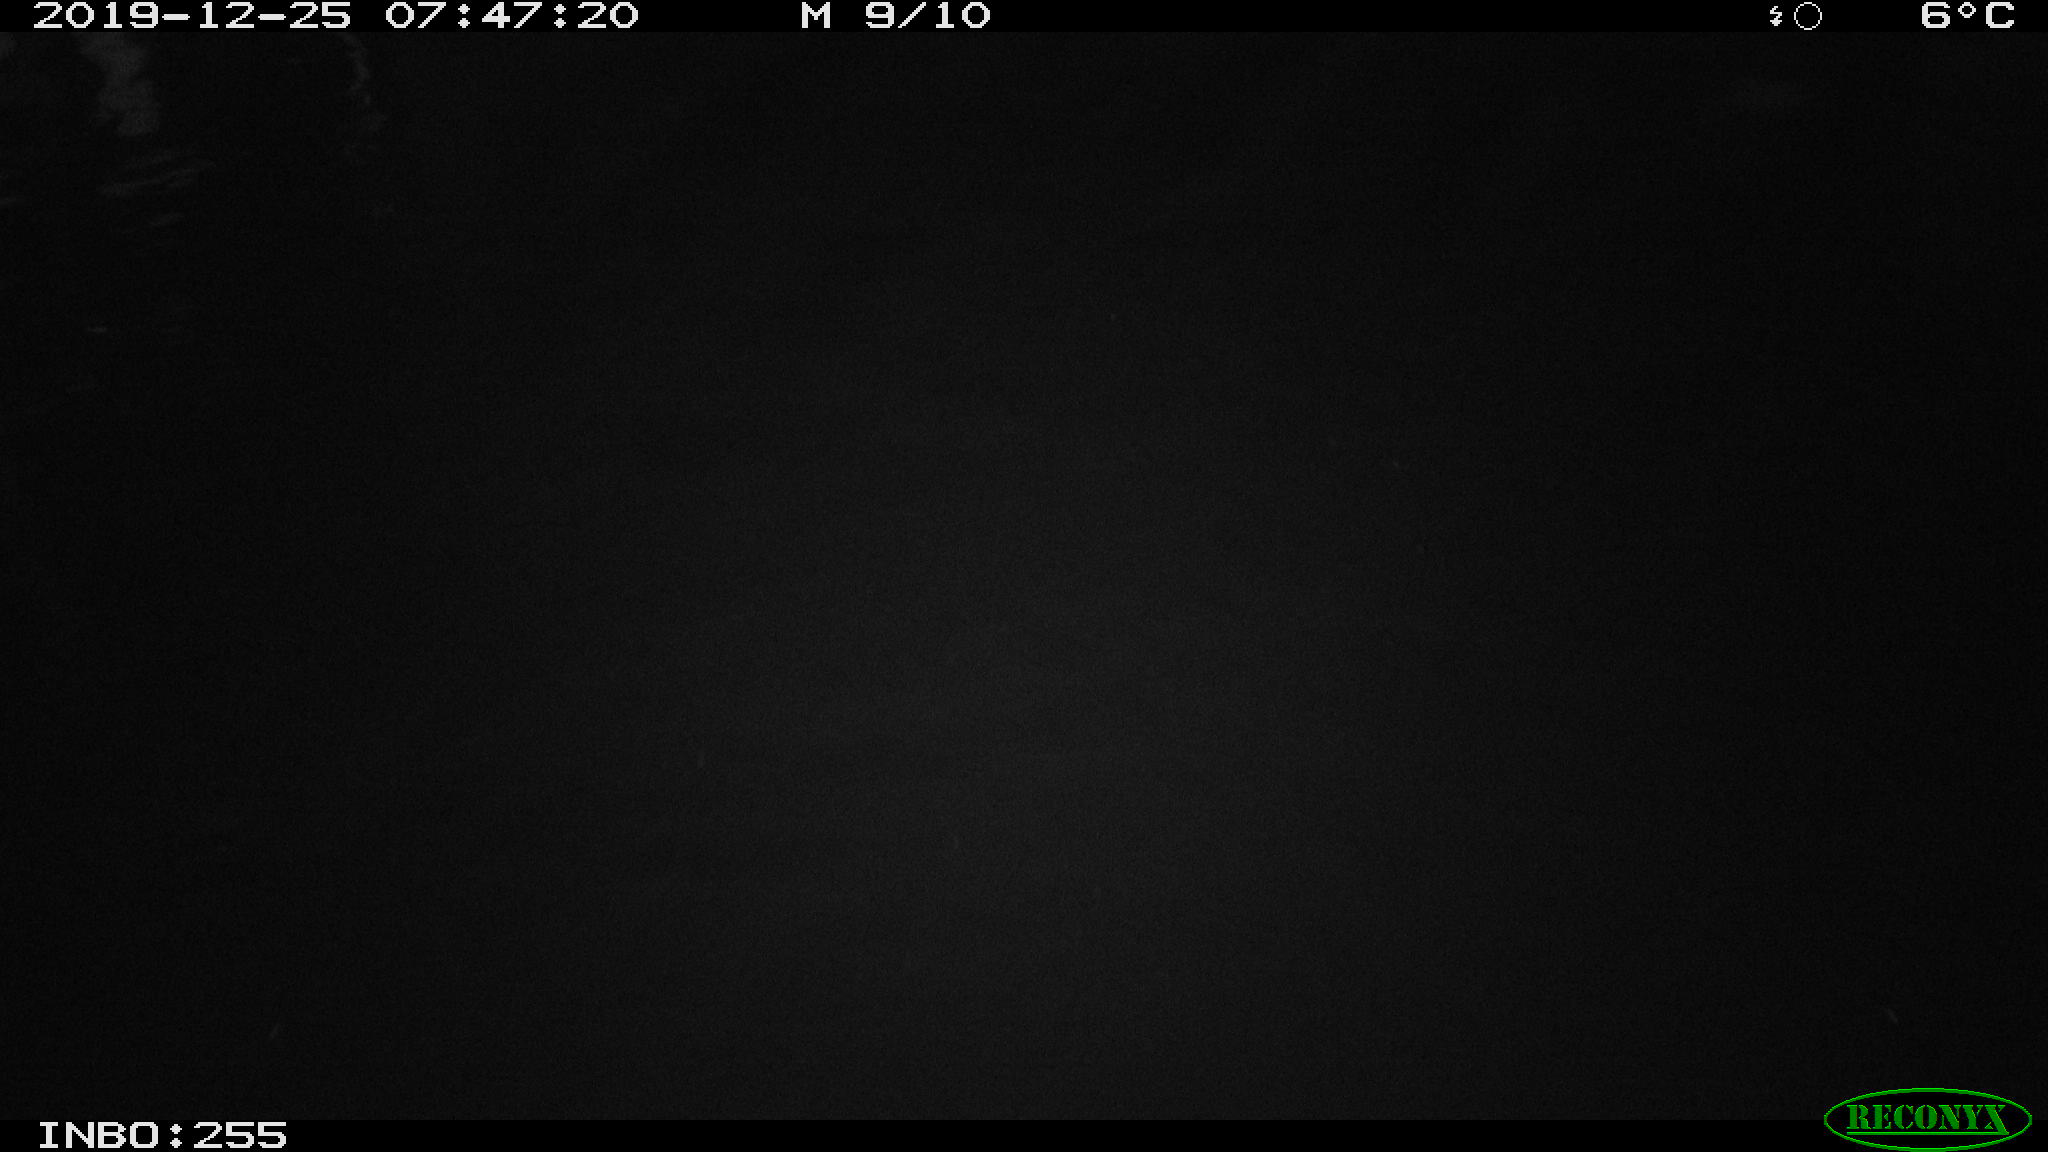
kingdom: Animalia
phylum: Chordata
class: Aves
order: Anseriformes
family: Anatidae
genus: Anas
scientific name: Anas platyrhynchos
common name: Mallard
